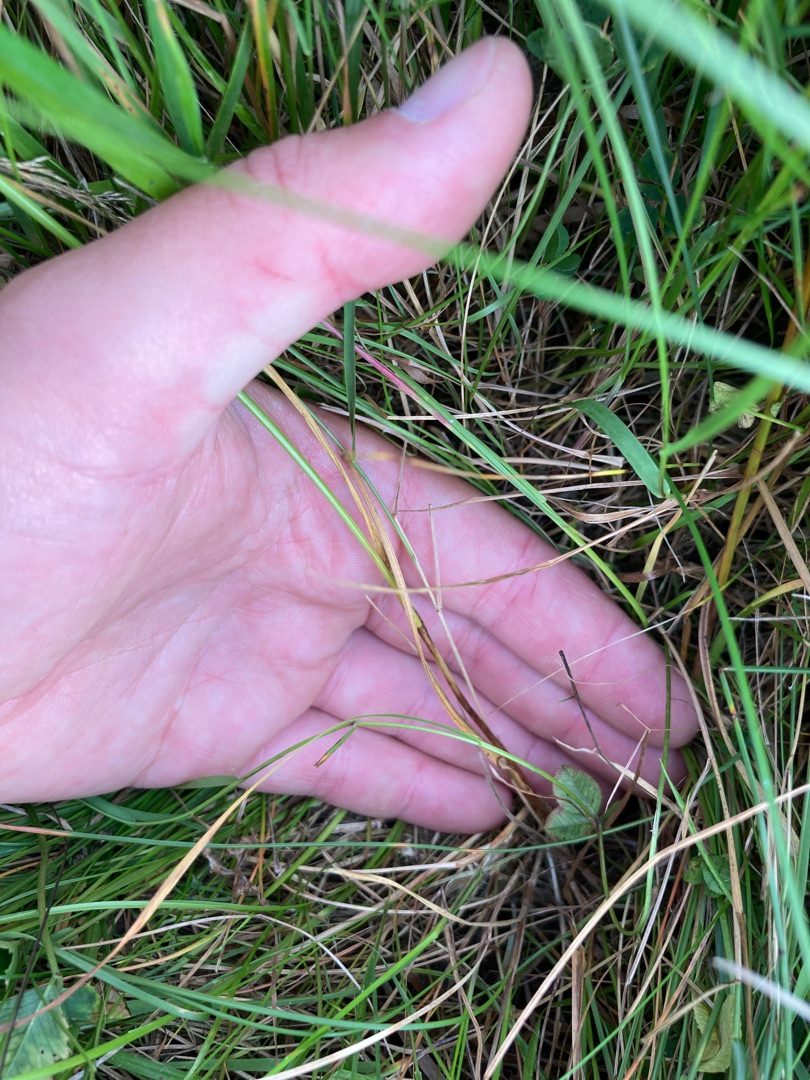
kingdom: Plantae
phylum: Tracheophyta
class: Liliopsida
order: Poales
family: Cyperaceae
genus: Carex
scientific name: Carex leporina
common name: Hare-star
